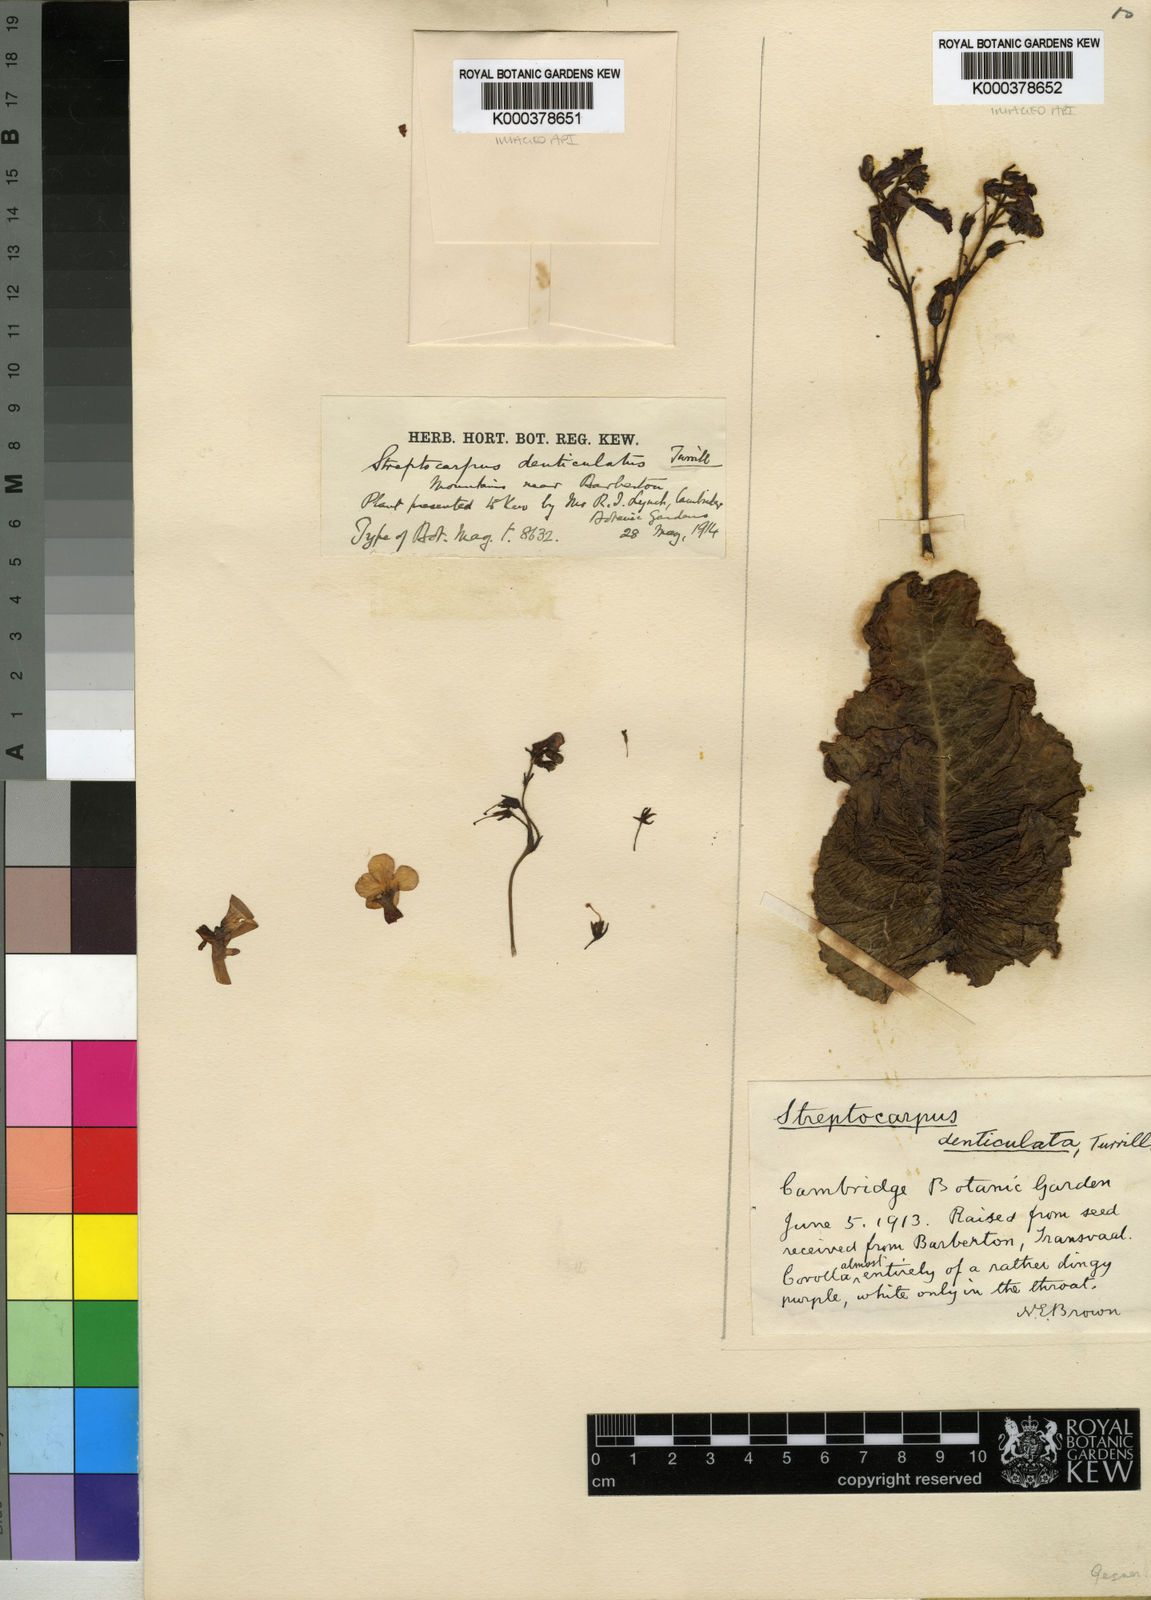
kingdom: Plantae
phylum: Tracheophyta
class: Magnoliopsida
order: Lamiales
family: Gesneriaceae
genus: Streptocarpus
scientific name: Streptocarpus denticulatus
